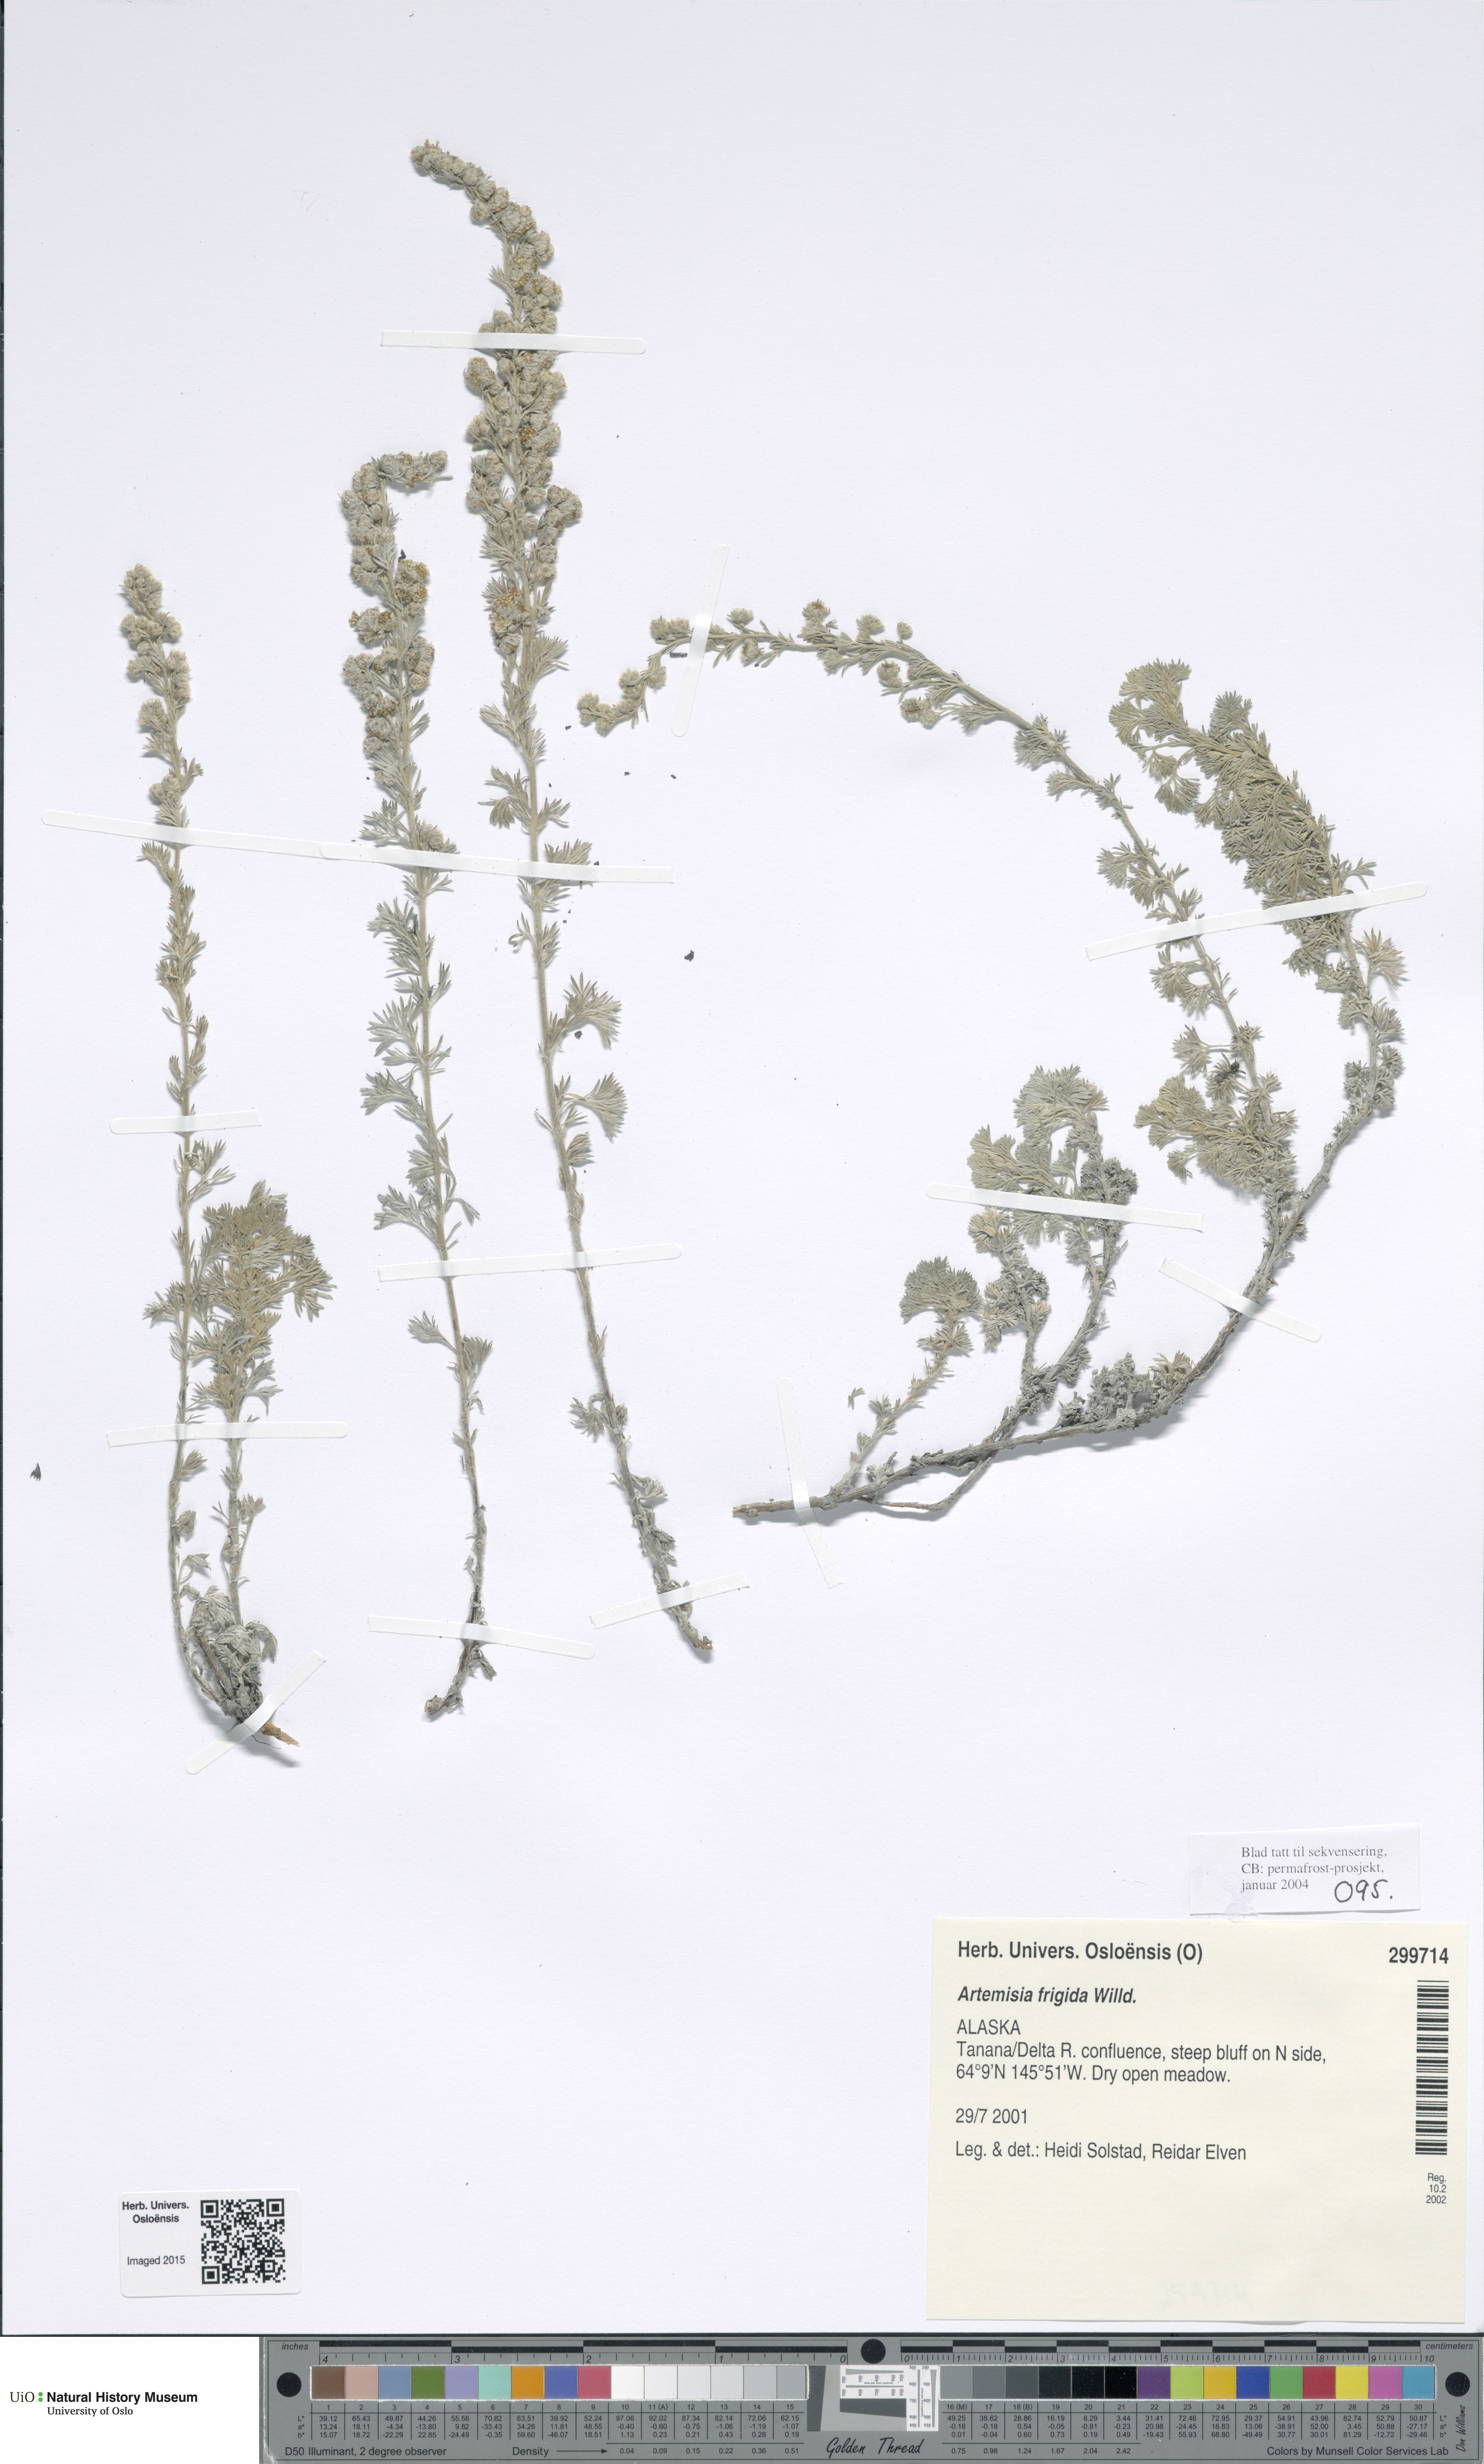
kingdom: Plantae
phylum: Tracheophyta
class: Magnoliopsida
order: Asterales
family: Asteraceae
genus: Artemisia
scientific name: Artemisia frigida
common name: Prairie sagewort
